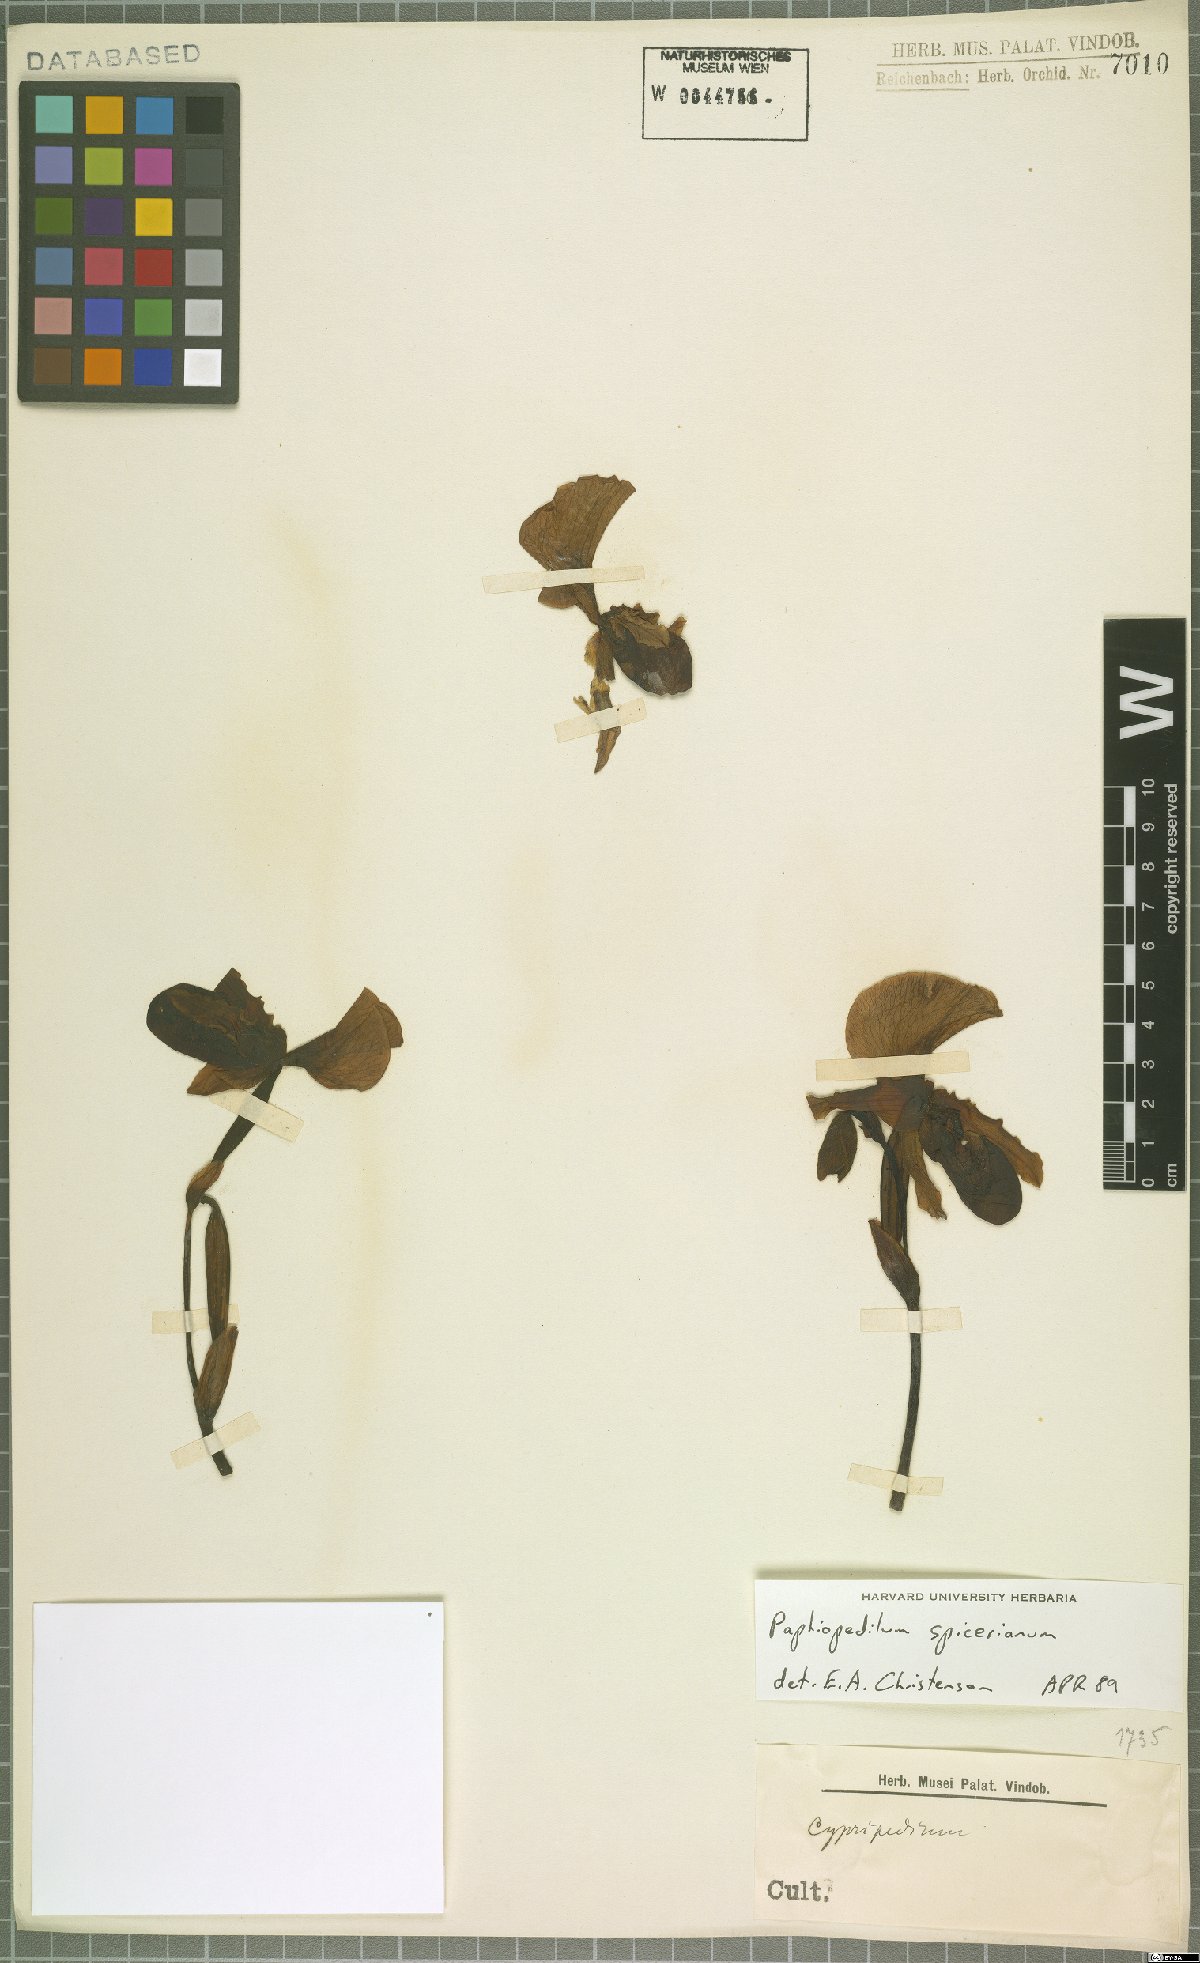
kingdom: Plantae
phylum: Tracheophyta
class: Liliopsida
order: Asparagales
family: Orchidaceae
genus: Paphiopedilum
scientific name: Paphiopedilum spicerianum
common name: Spicer’s paphiopedilum
